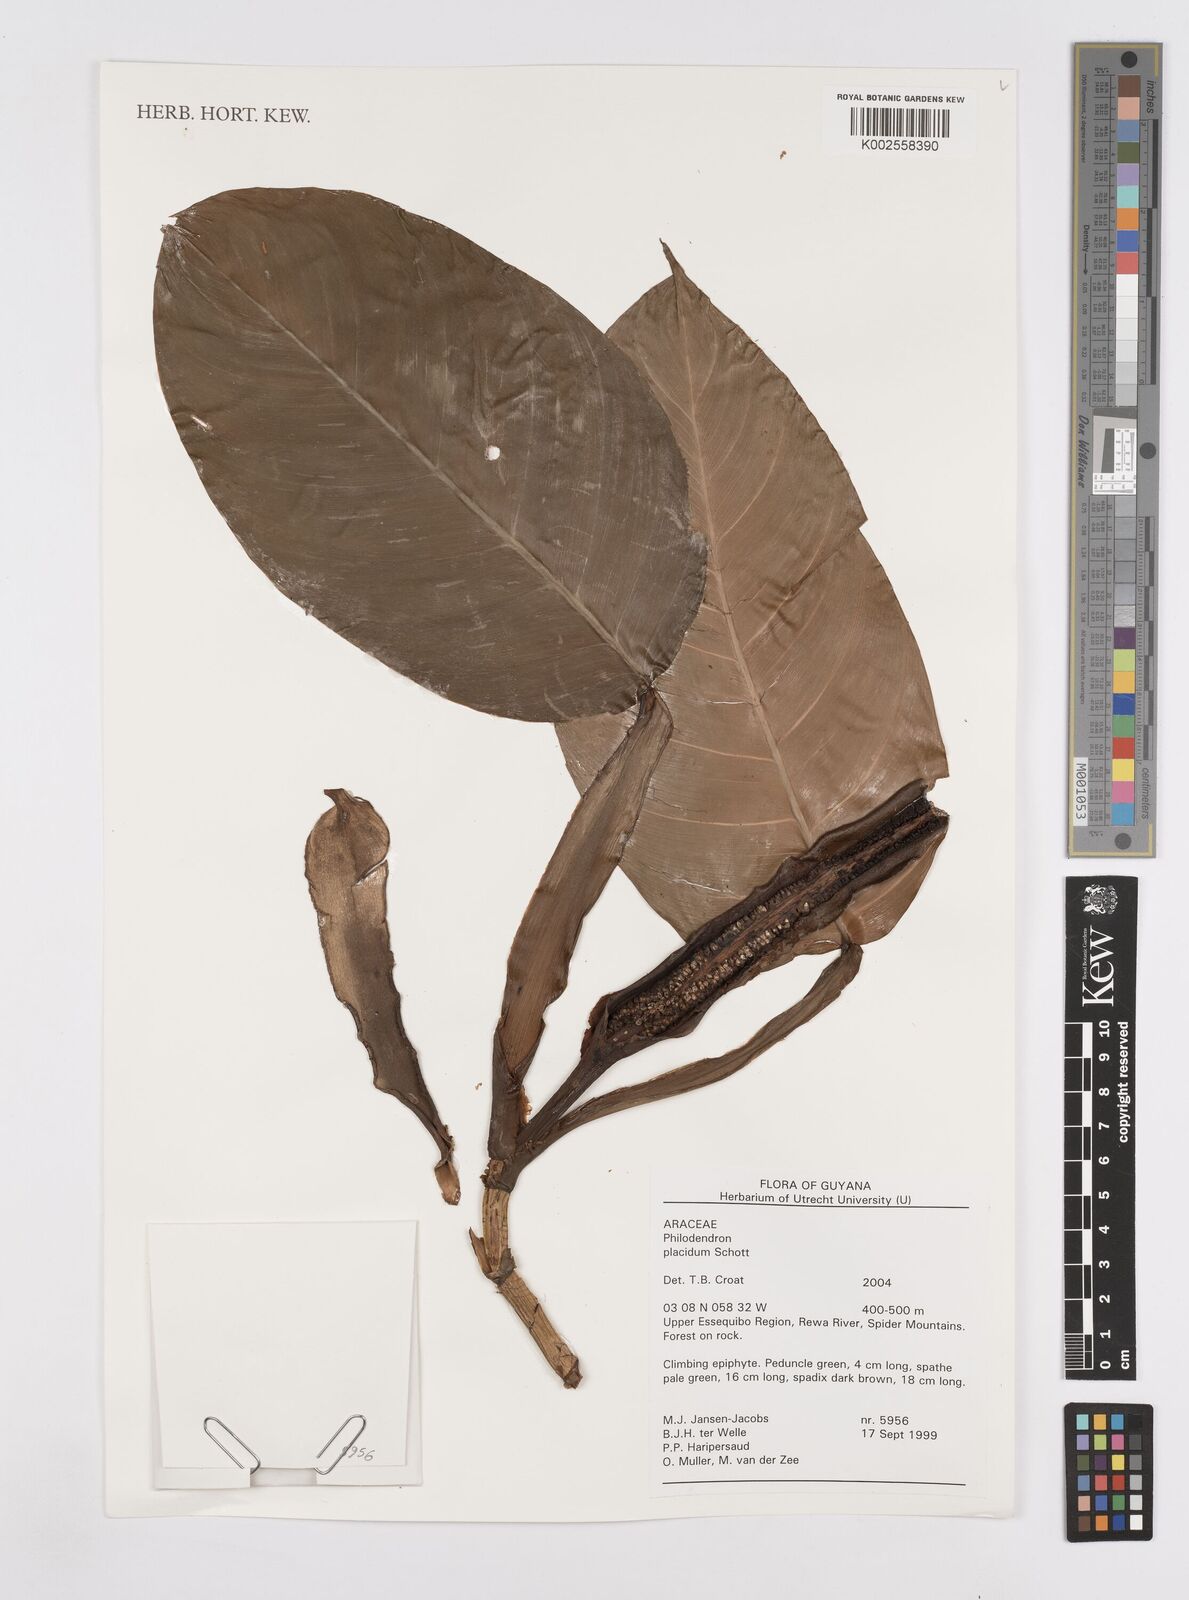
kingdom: Plantae
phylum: Tracheophyta
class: Liliopsida
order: Alismatales
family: Araceae
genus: Philodendron
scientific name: Philodendron placidum
